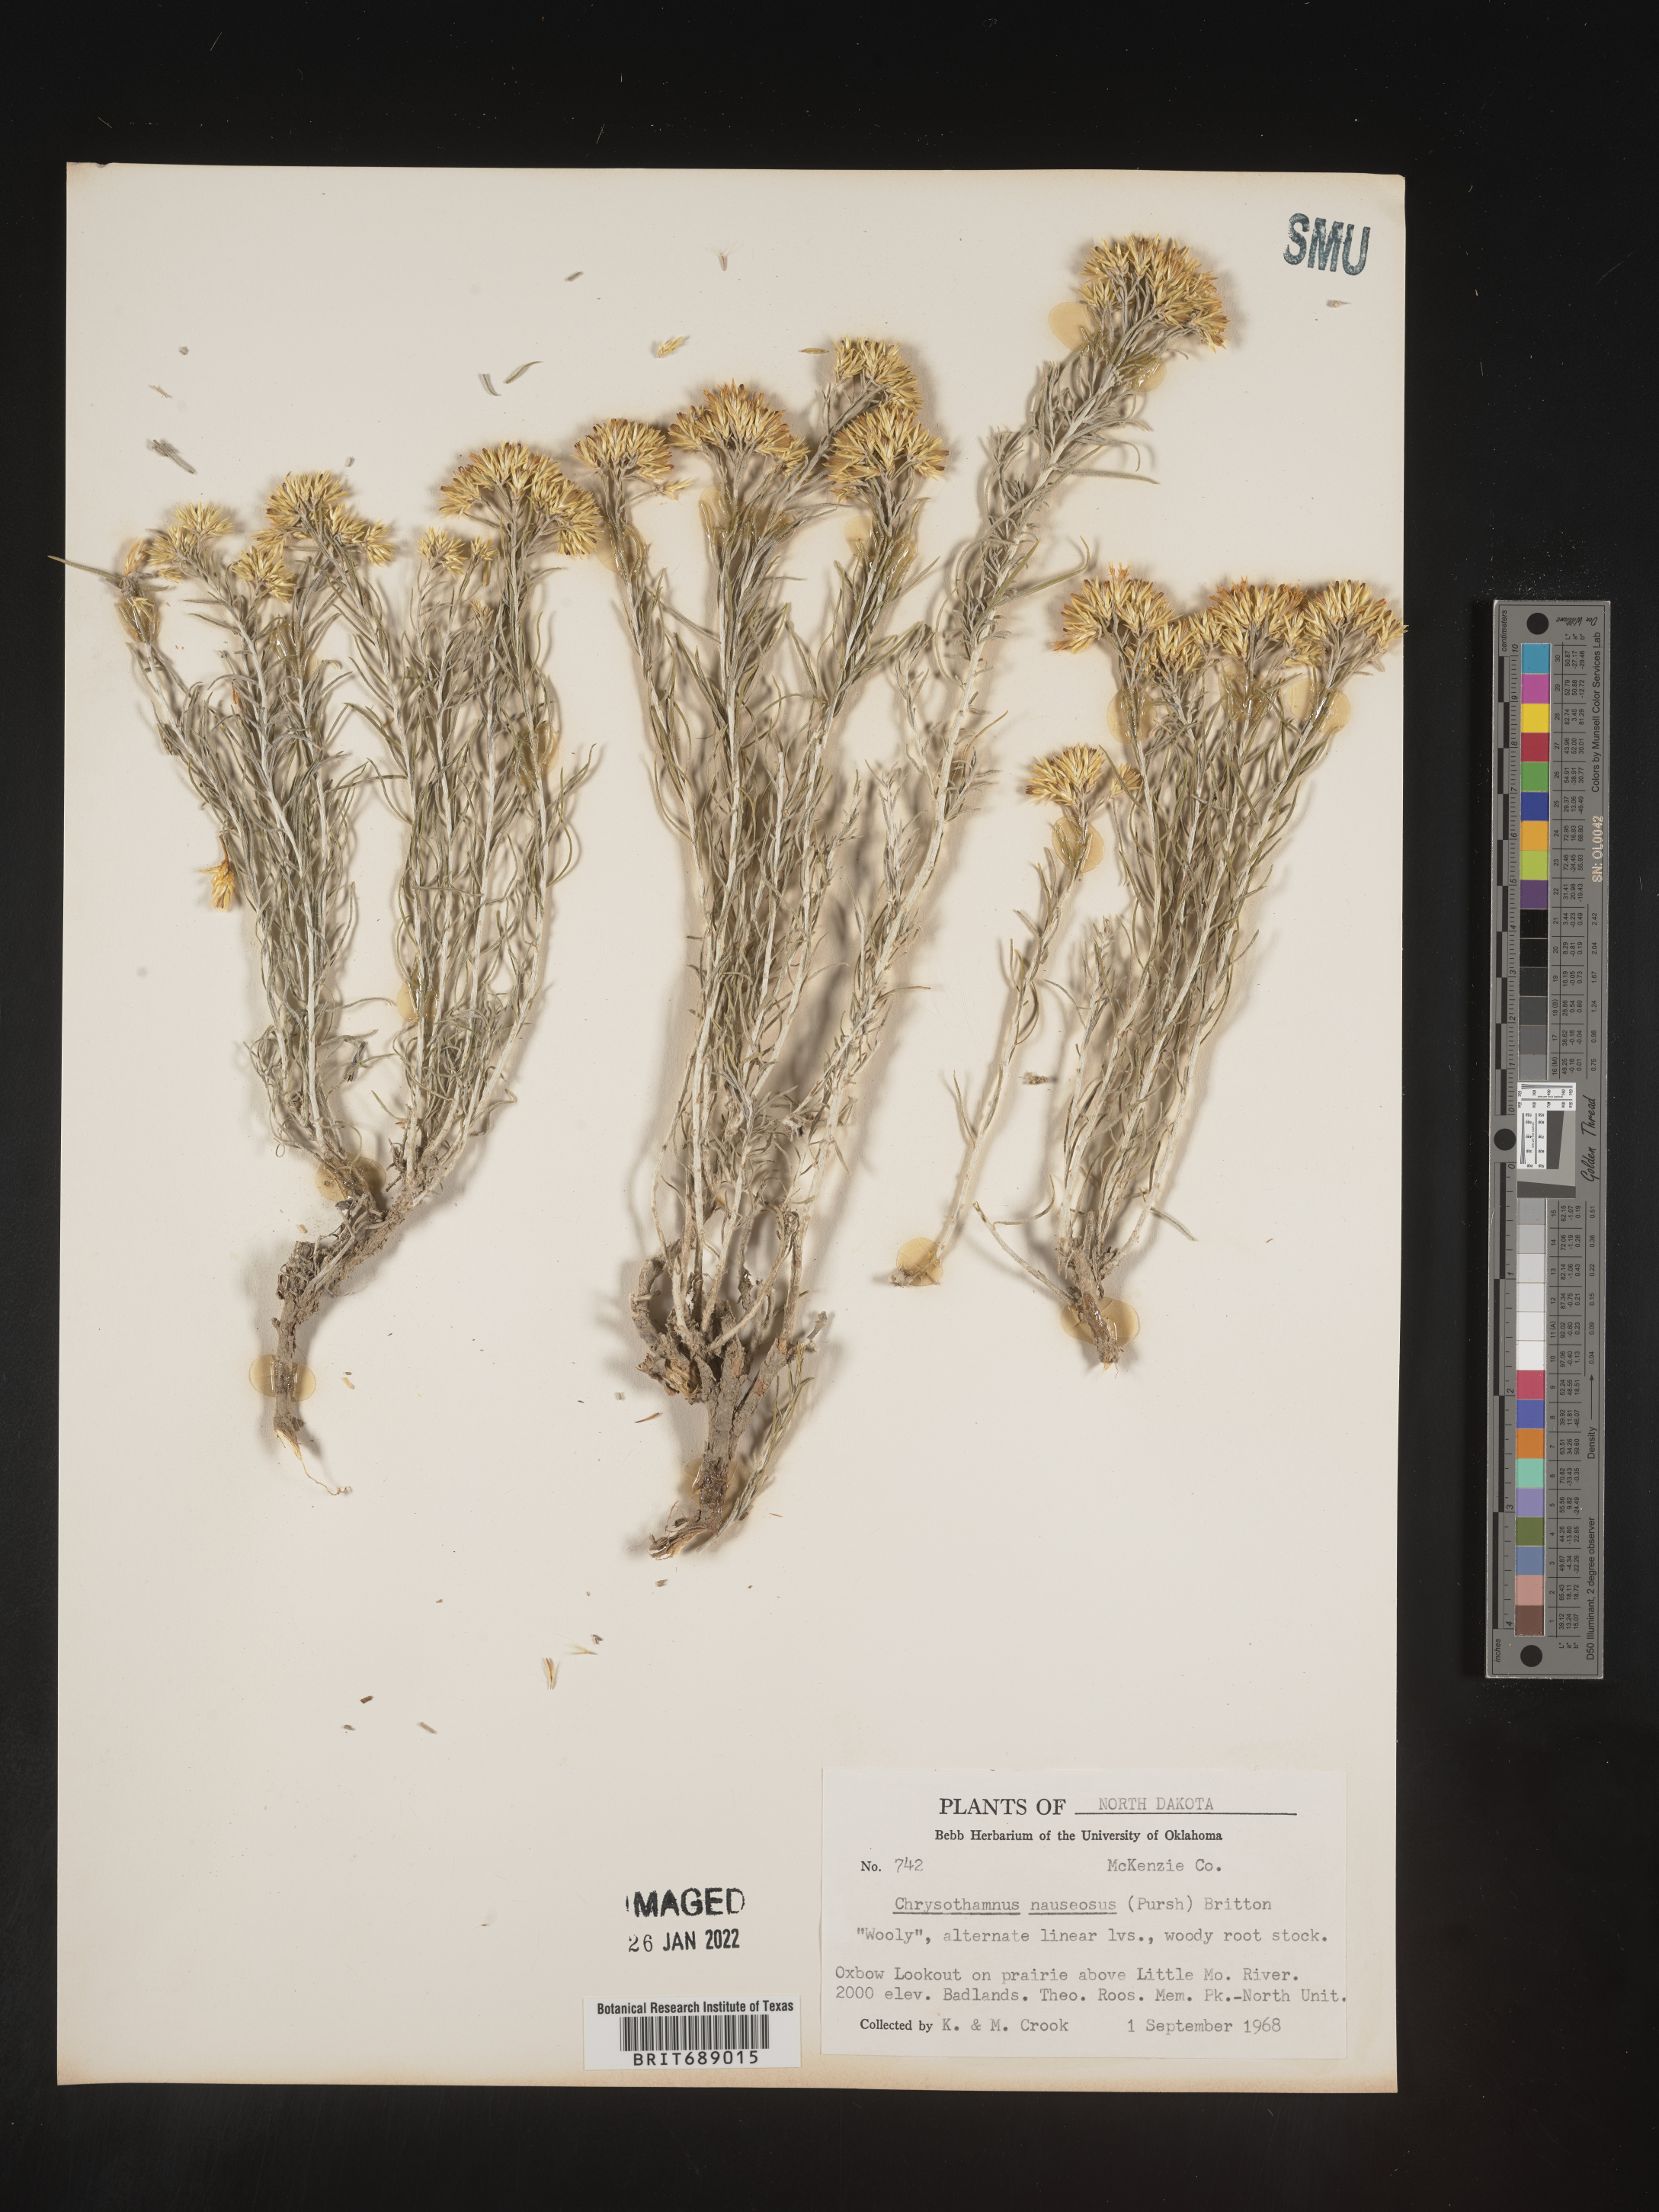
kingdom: Plantae
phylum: Tracheophyta
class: Magnoliopsida
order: Asterales
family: Asteraceae
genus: Ericameria
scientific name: Ericameria nauseosa
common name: Rubber rabbitbrush
